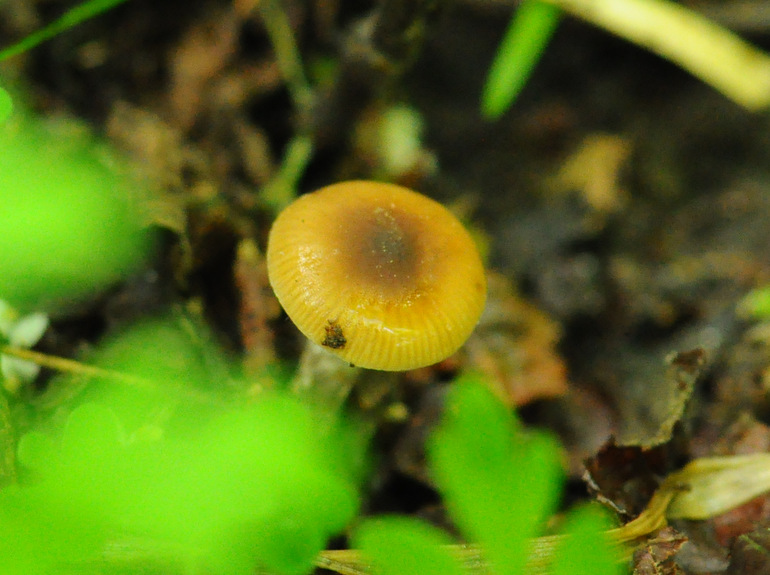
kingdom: Fungi
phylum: Basidiomycota
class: Agaricomycetes
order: Agaricales
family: Hymenogastraceae
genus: Naucoria
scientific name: Naucoria bohemica
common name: birke-knaphat
